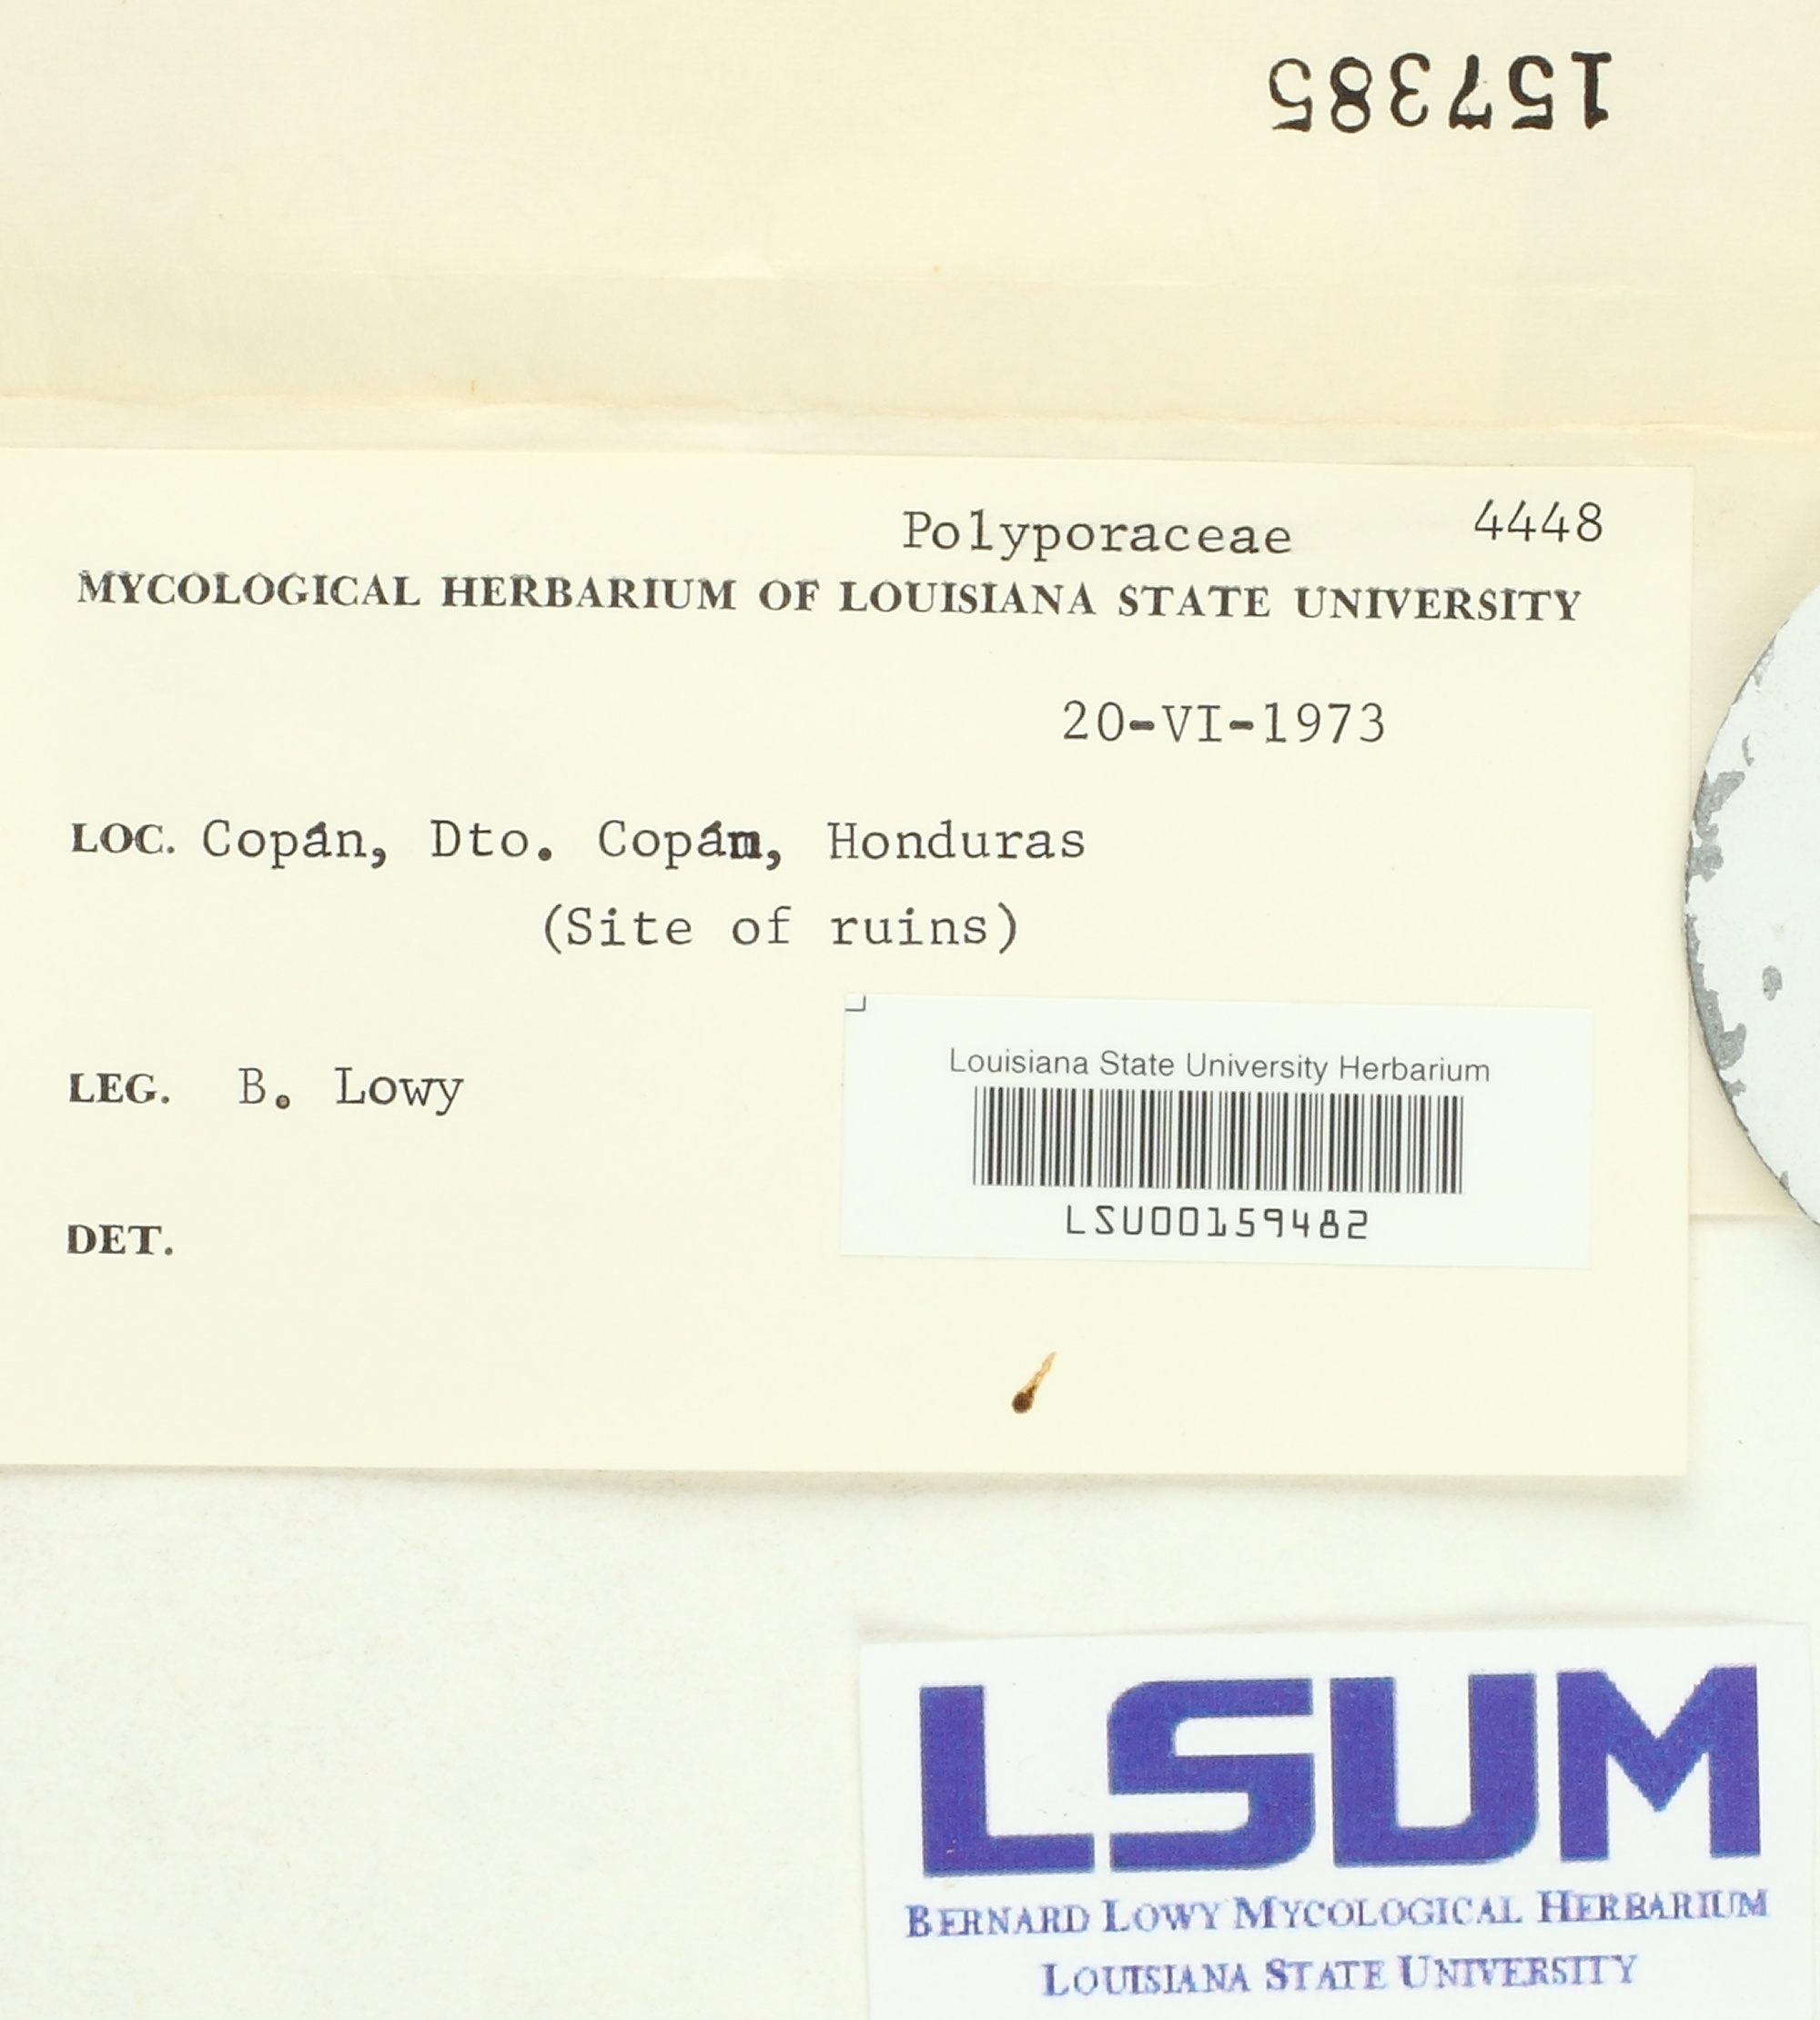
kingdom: Fungi
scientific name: Fungi
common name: Fungi
